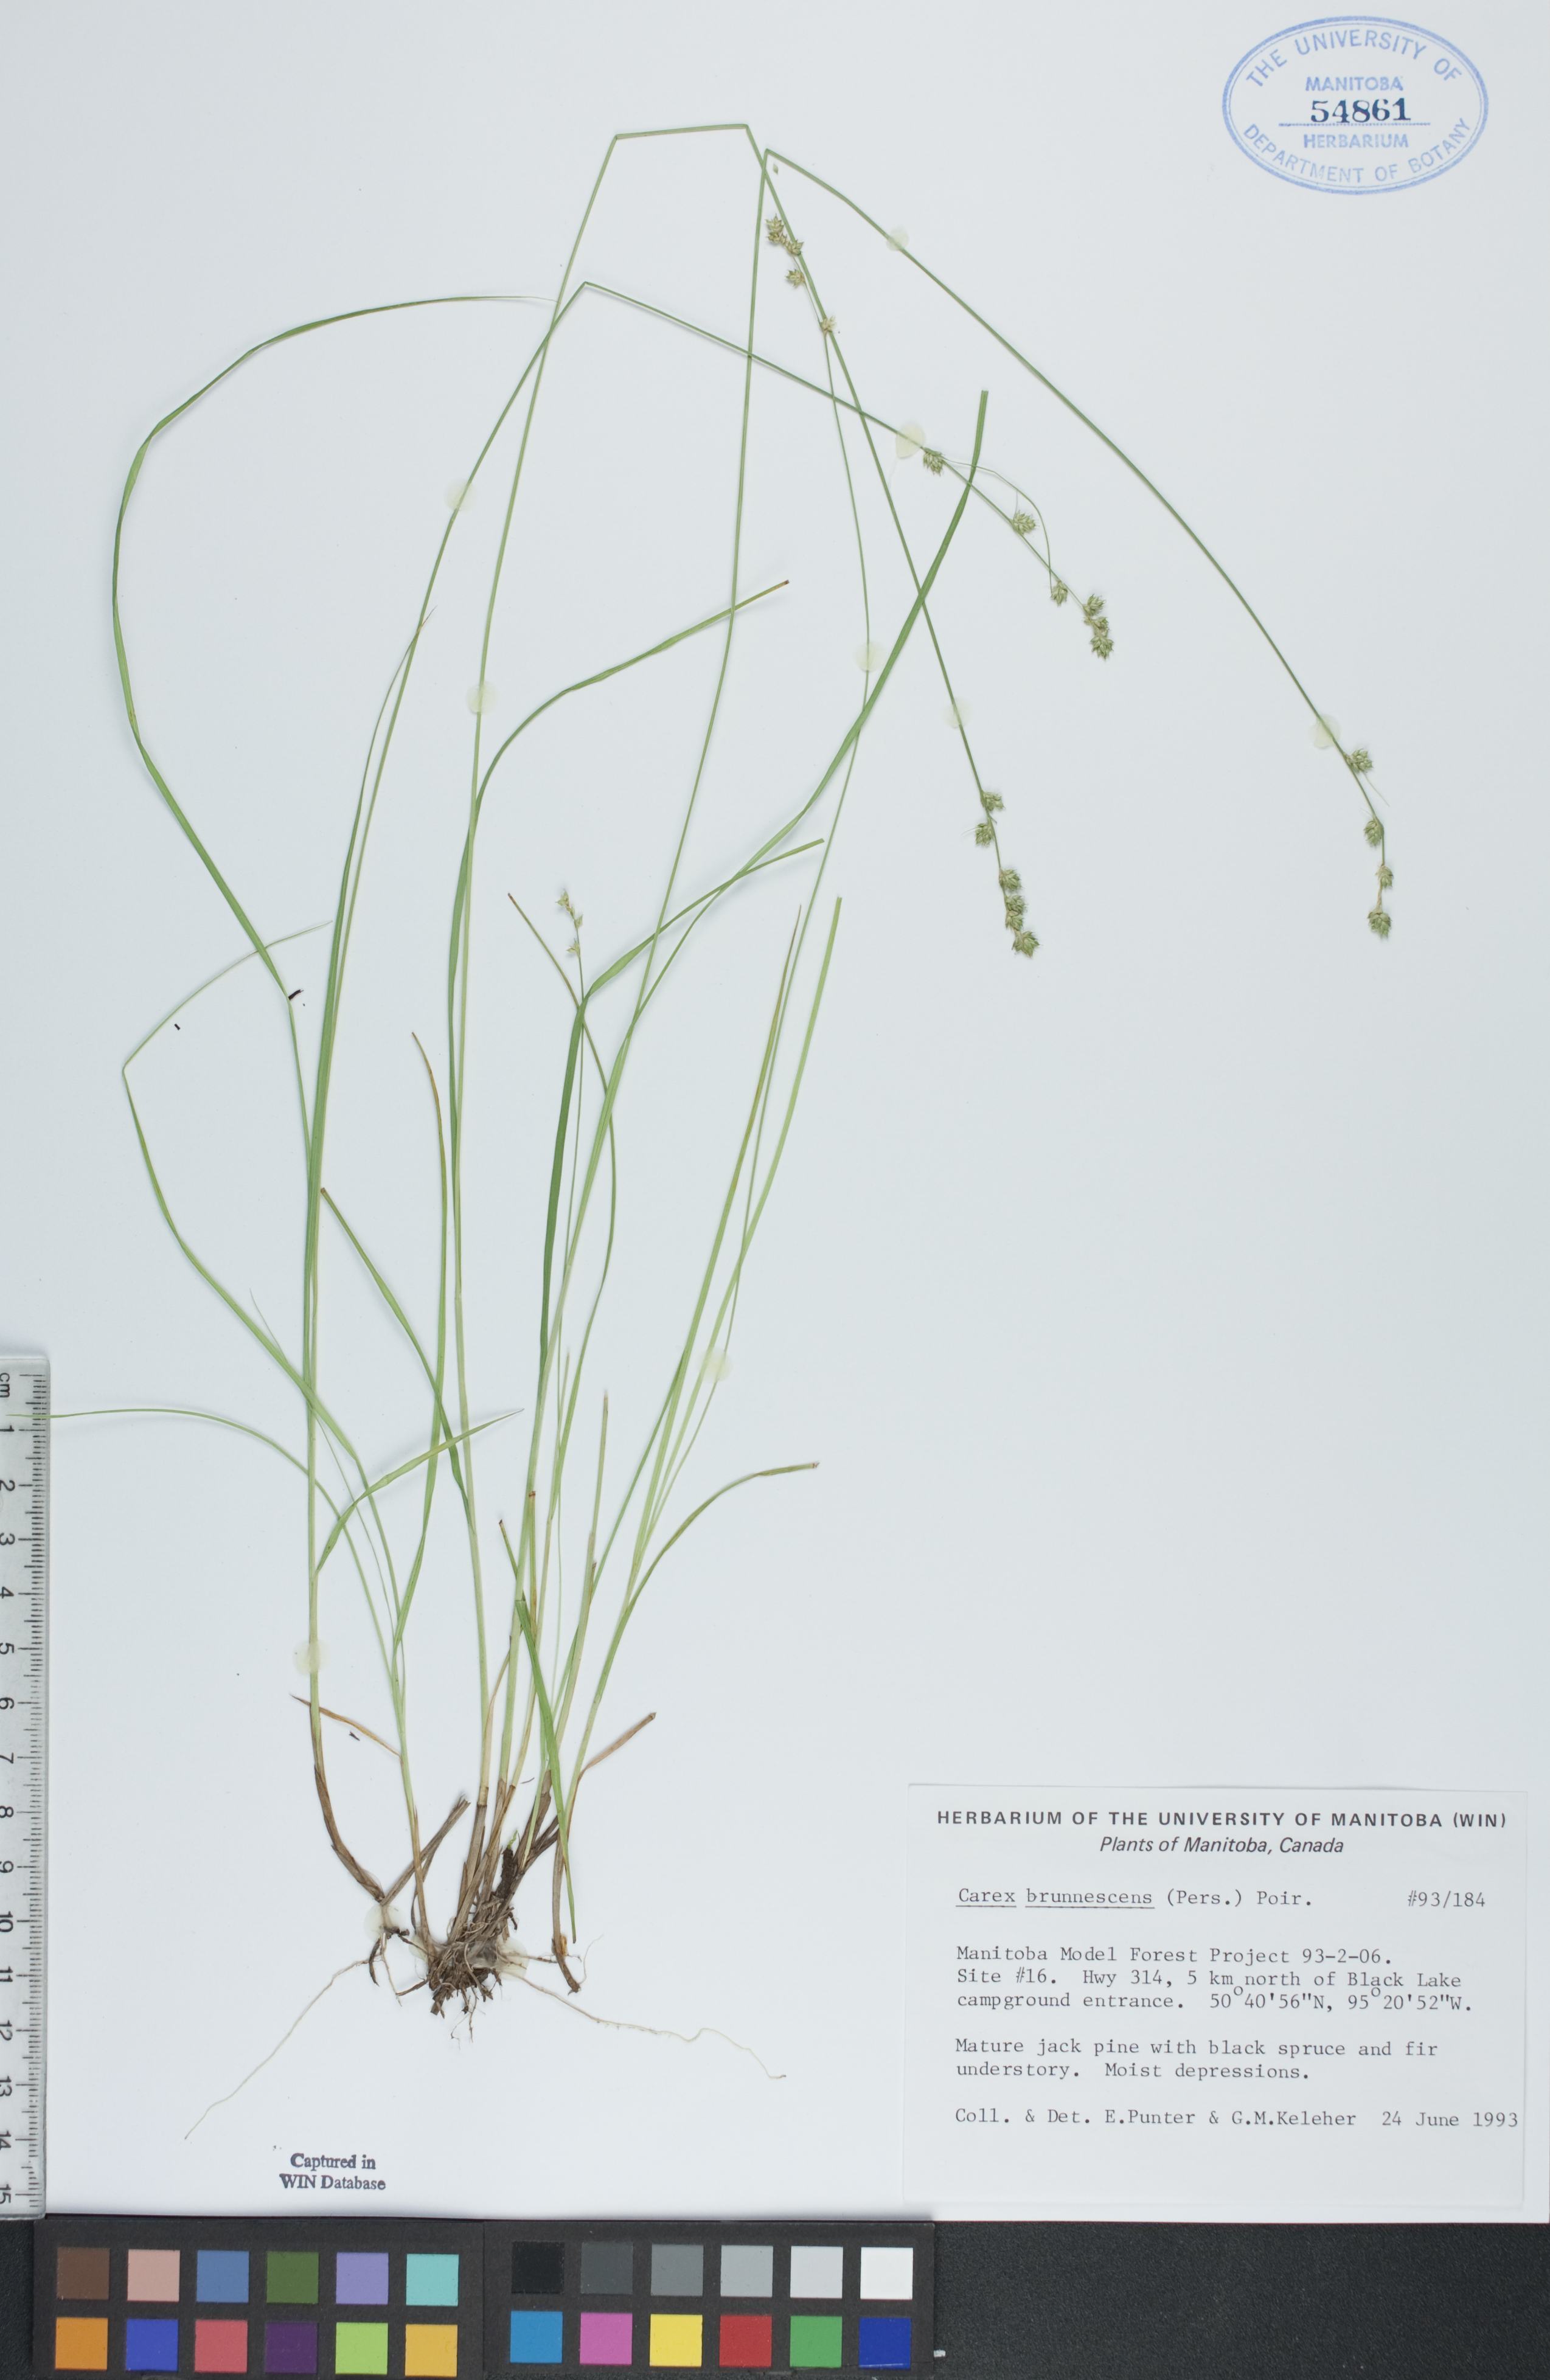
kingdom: Plantae
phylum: Tracheophyta
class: Liliopsida
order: Poales
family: Cyperaceae
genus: Carex
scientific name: Carex brunnescens
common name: Brown sedge
